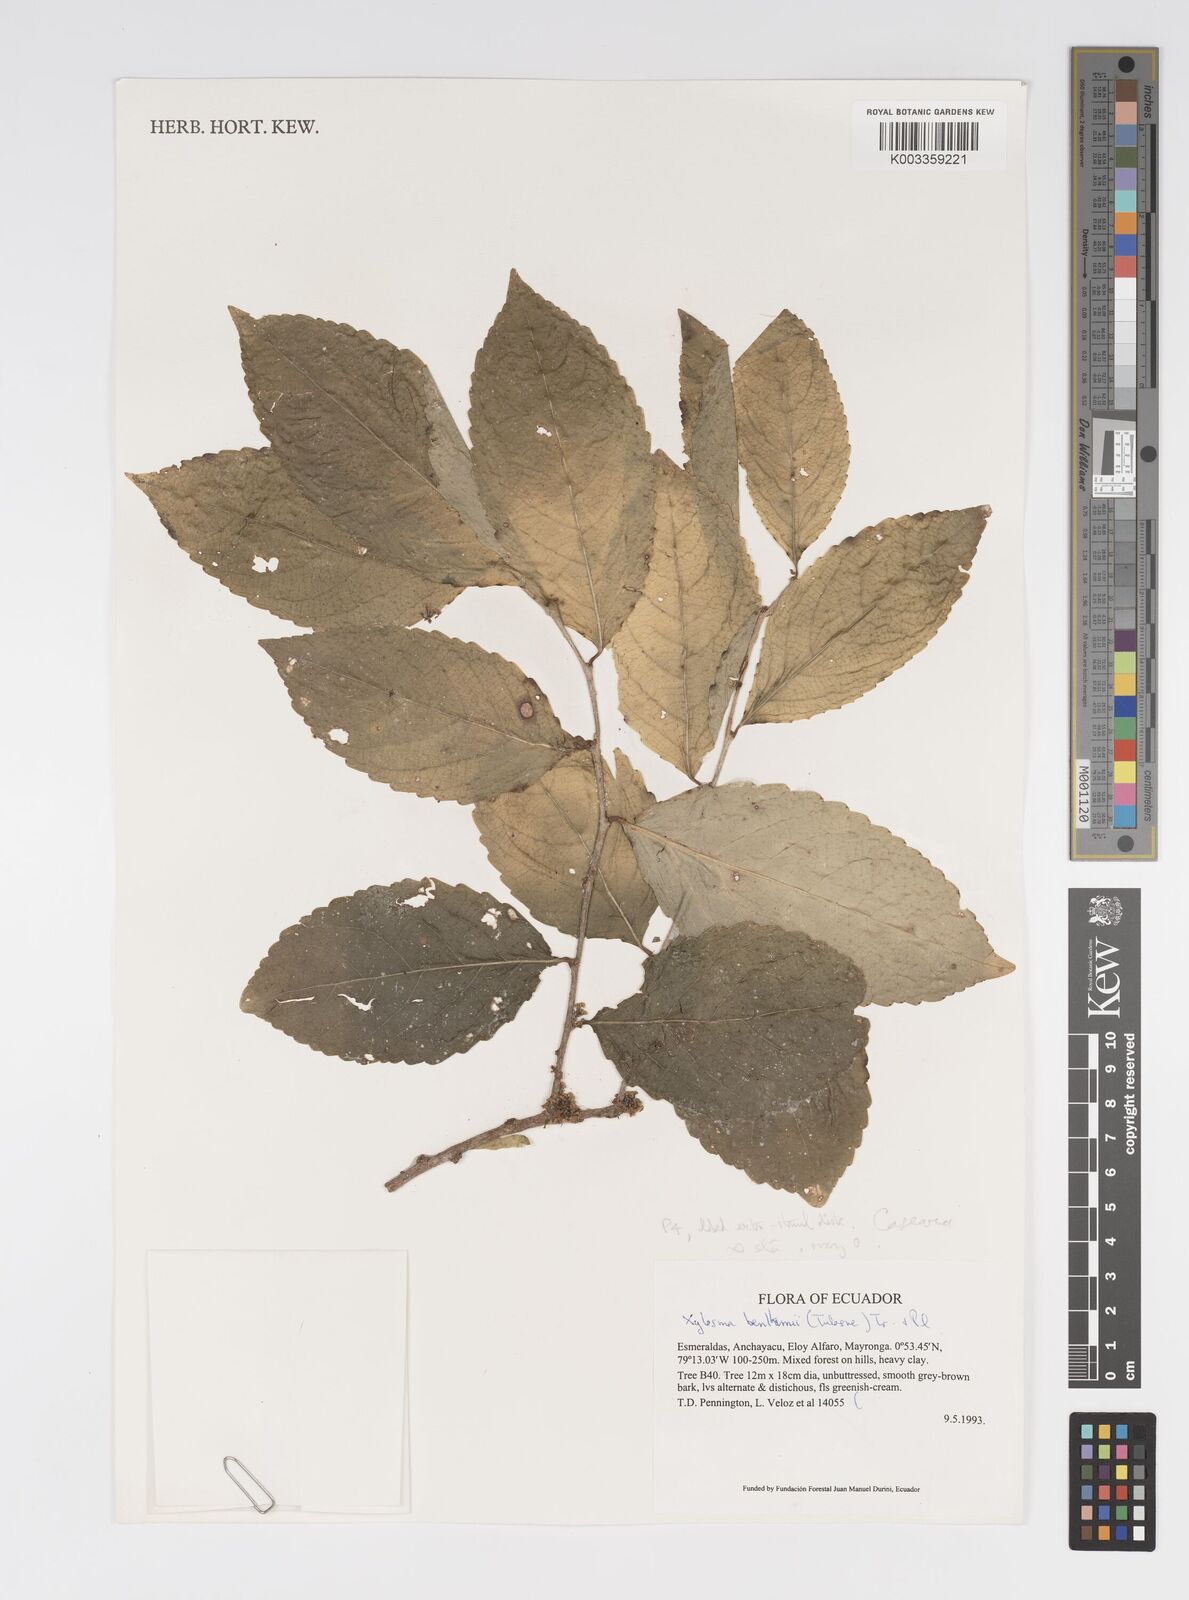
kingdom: Plantae
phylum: Tracheophyta
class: Magnoliopsida
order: Malpighiales
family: Salicaceae
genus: Xylosma
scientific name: Xylosma benthamii
